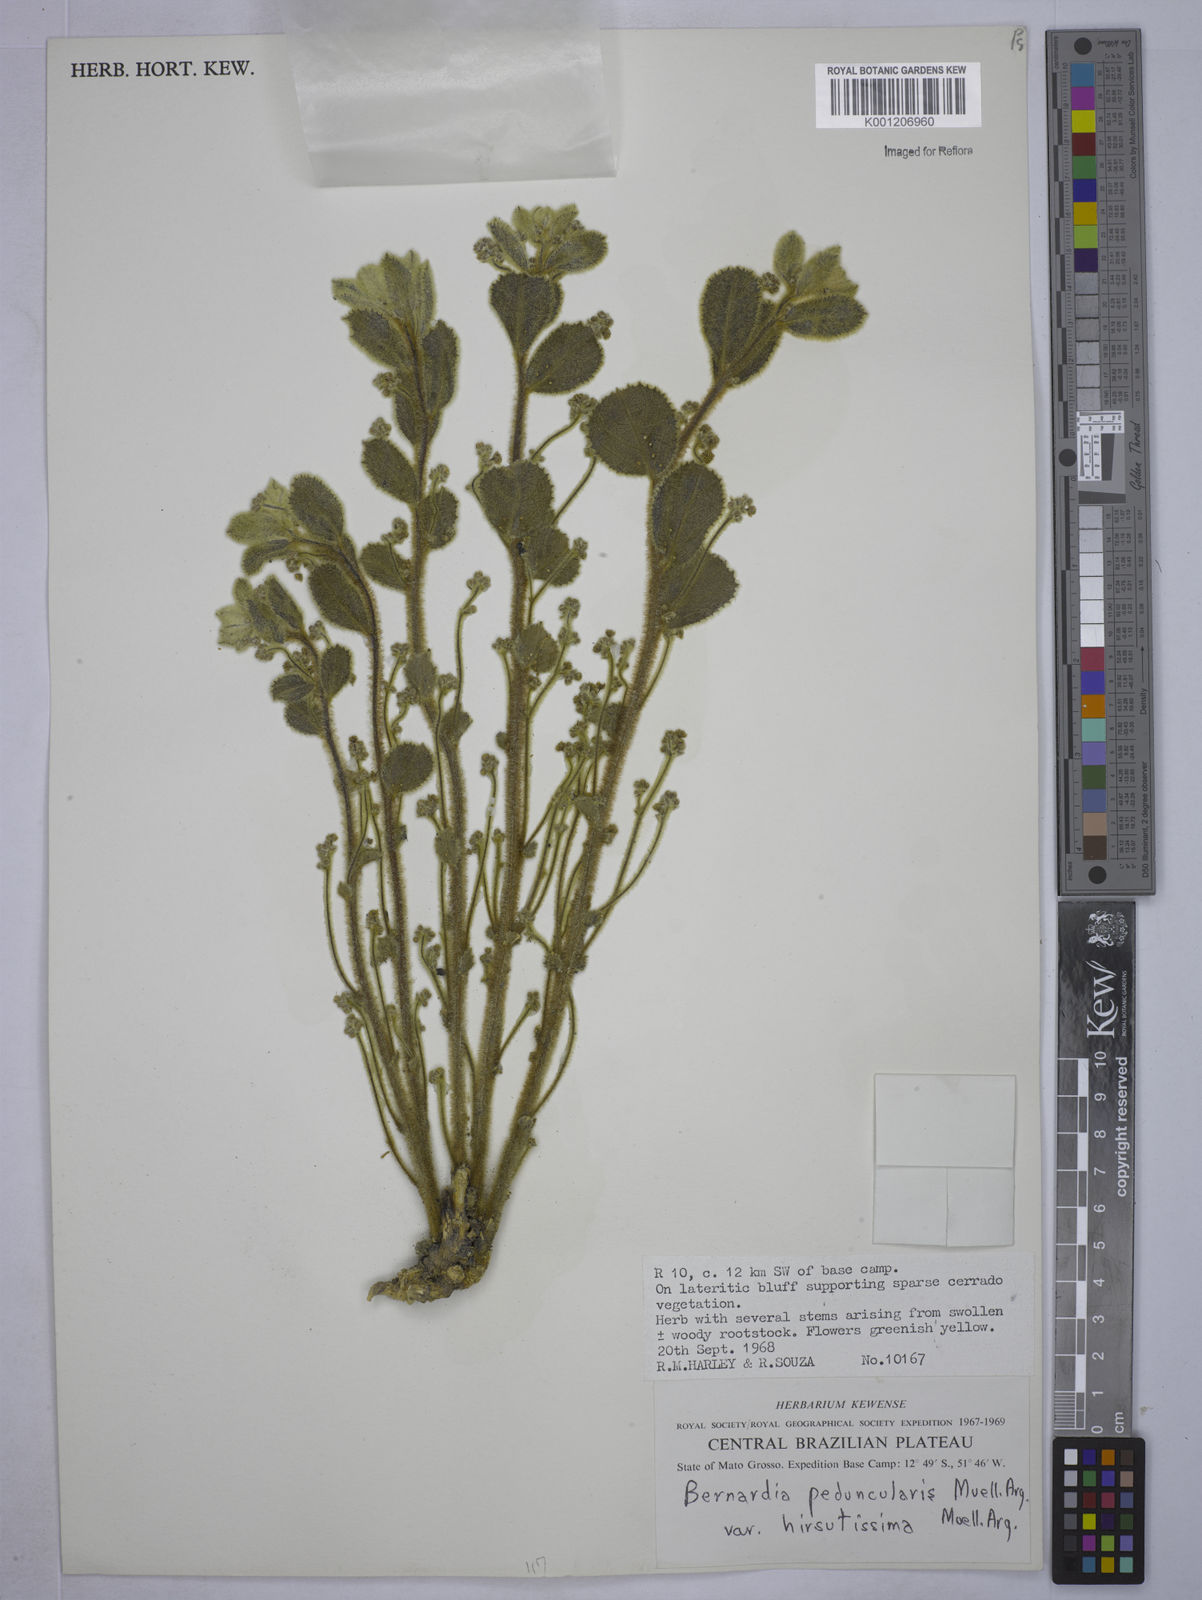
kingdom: Plantae
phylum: Tracheophyta
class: Magnoliopsida
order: Malpighiales
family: Euphorbiaceae
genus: Bernardia
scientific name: Bernardia
